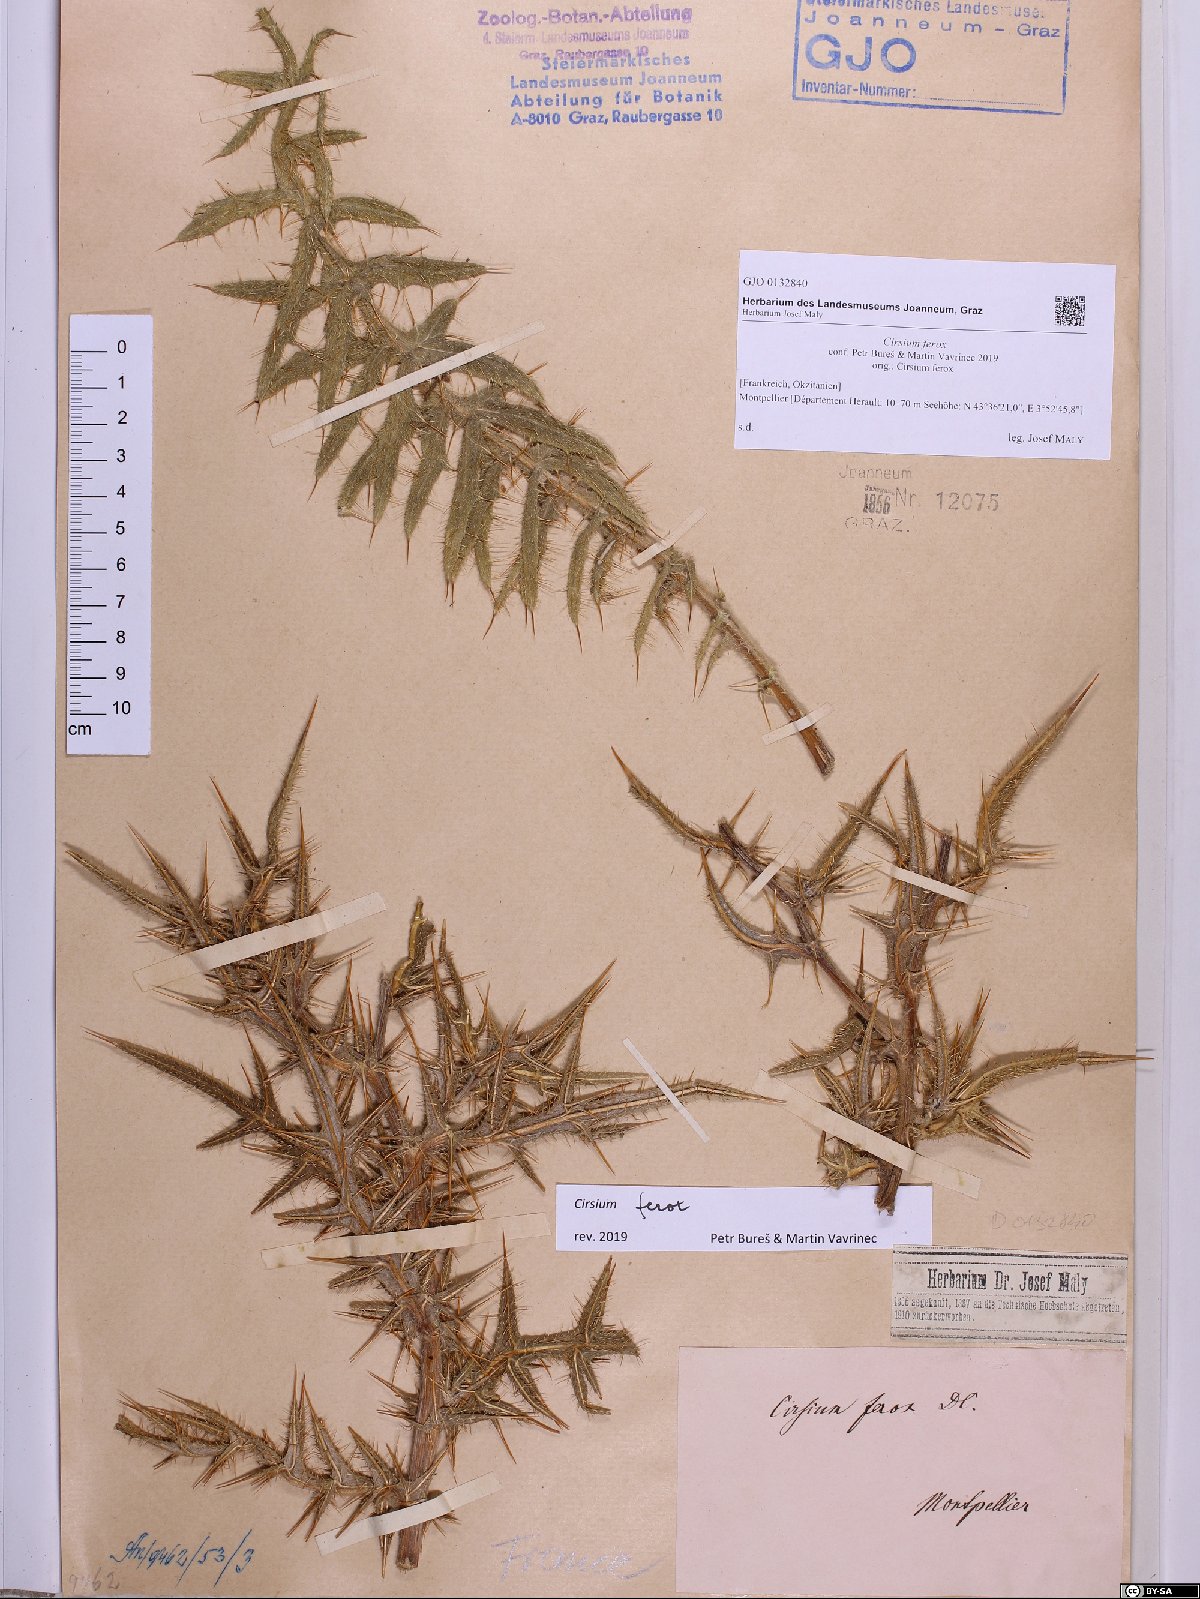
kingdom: Plantae
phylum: Tracheophyta
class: Magnoliopsida
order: Asterales
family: Asteraceae
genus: Lophiolepis
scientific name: Lophiolepis ferox
